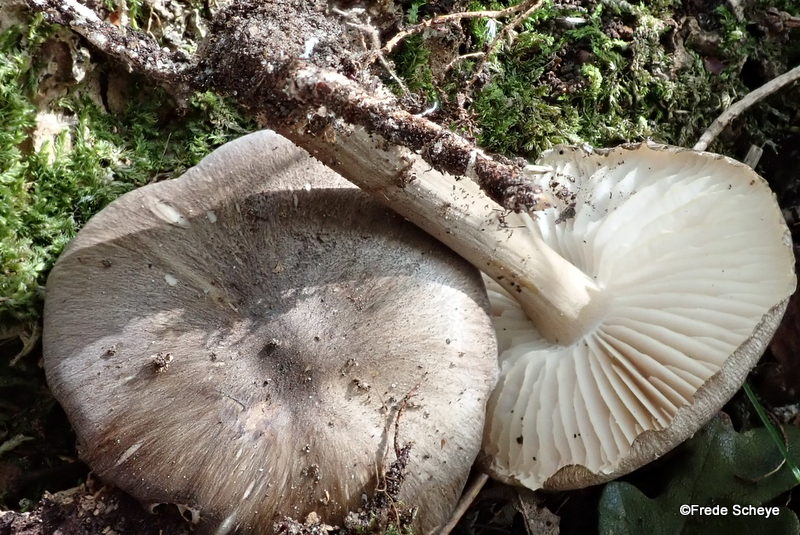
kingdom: Fungi
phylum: Basidiomycota
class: Agaricomycetes
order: Agaricales
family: Tricholomataceae
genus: Megacollybia
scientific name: Megacollybia platyphylla
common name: bredbladet væbnerhat
